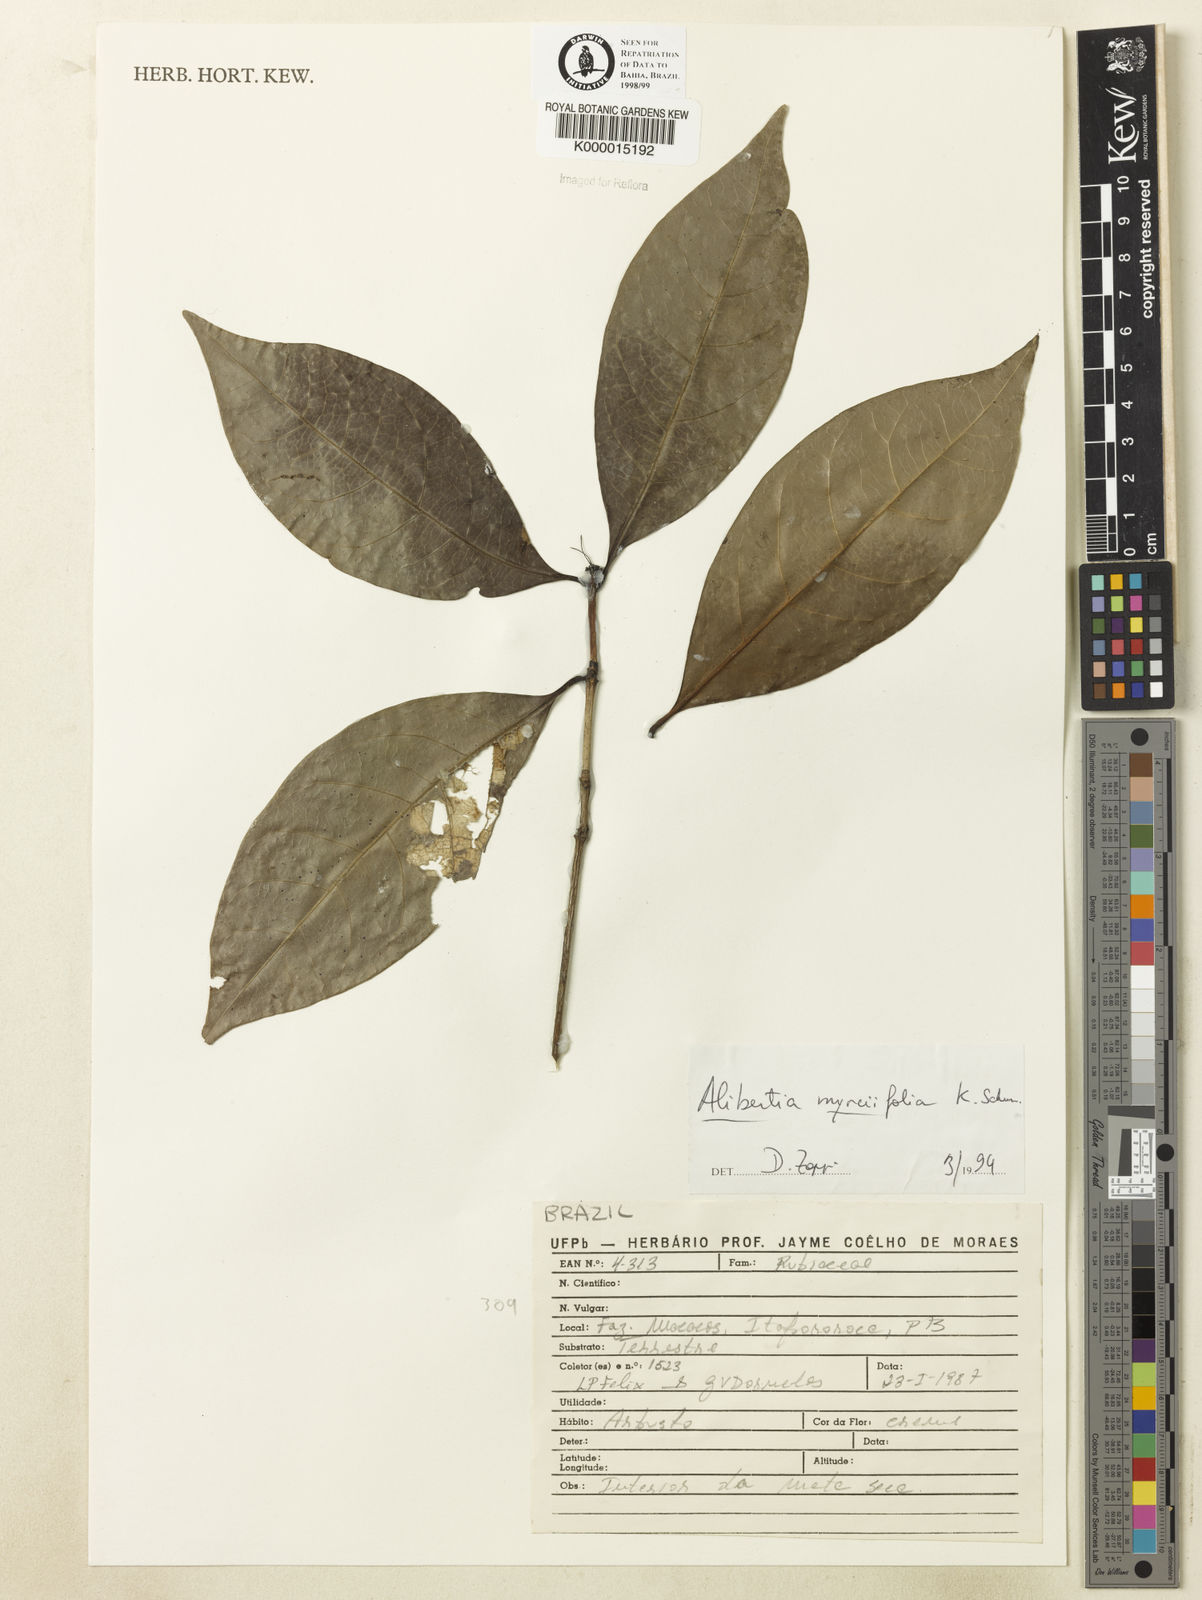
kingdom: Plantae
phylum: Tracheophyta
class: Magnoliopsida
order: Gentianales
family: Rubiaceae
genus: Cordiera
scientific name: Cordiera myrciifolia
